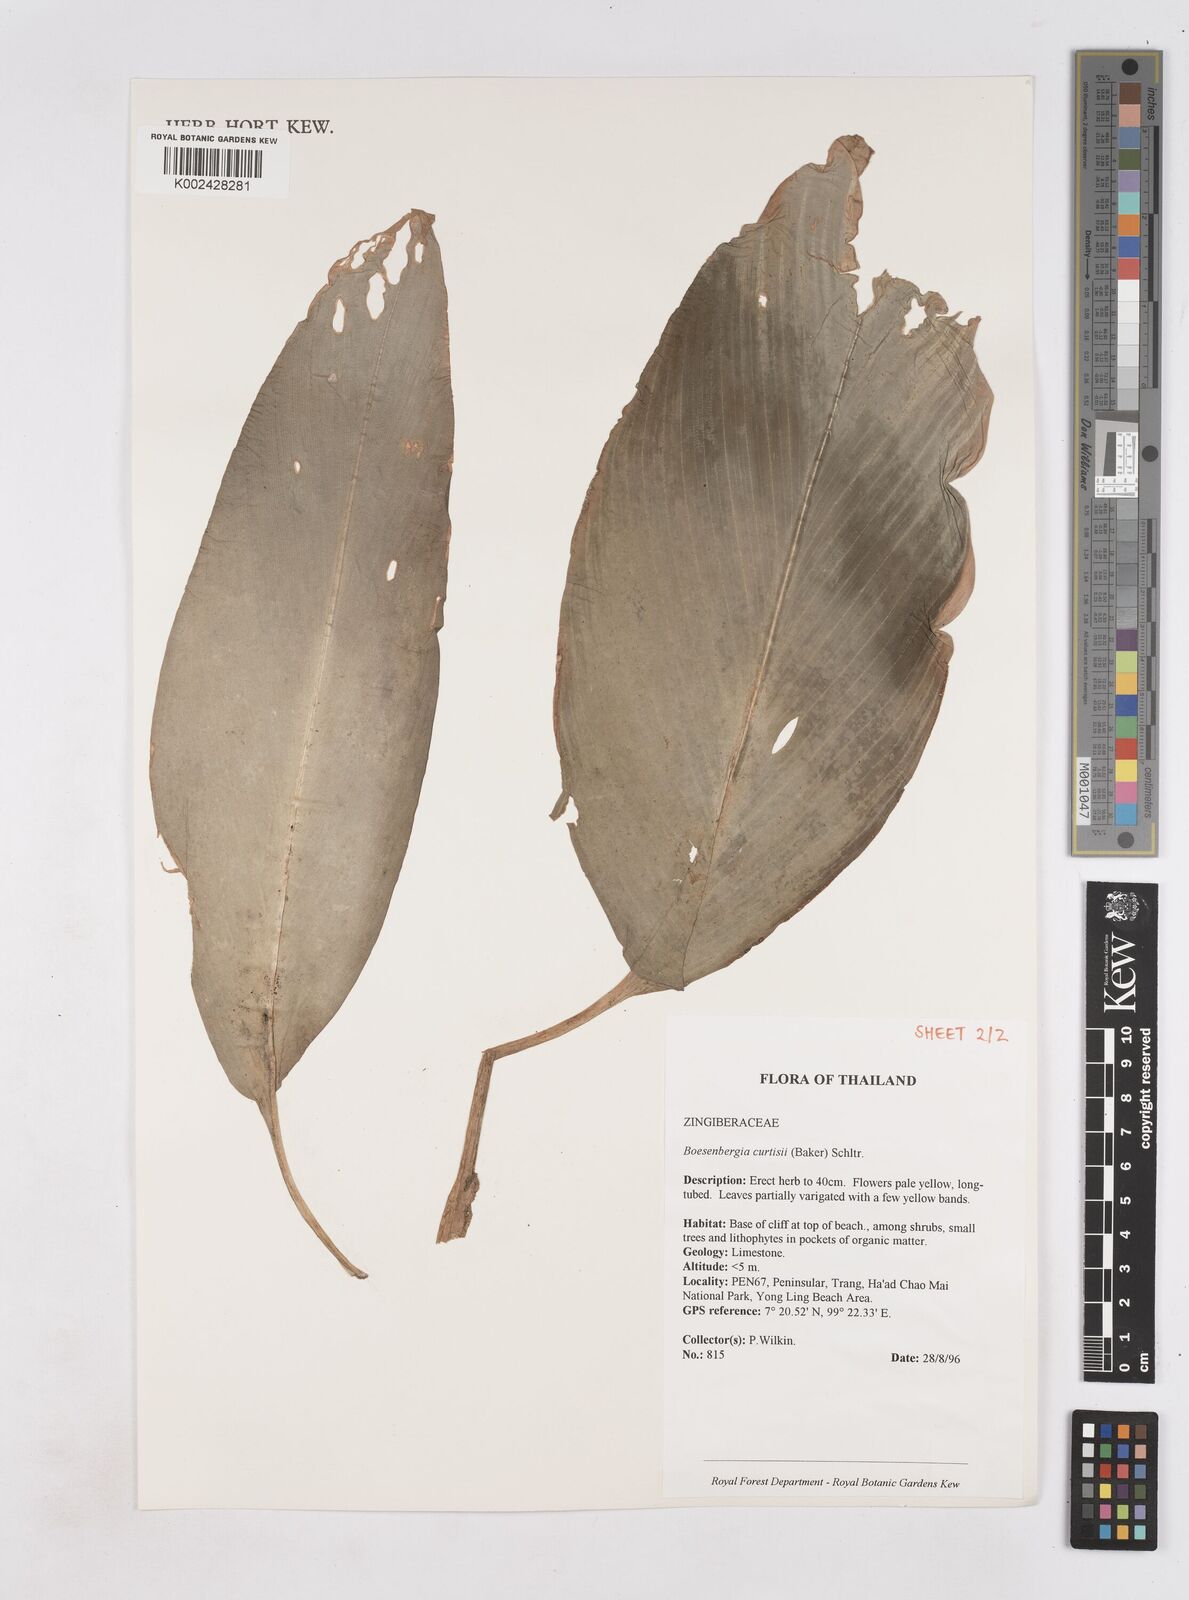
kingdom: Plantae
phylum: Tracheophyta
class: Liliopsida
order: Zingiberales
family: Zingiberaceae
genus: Boesenbergia
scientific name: Boesenbergia curtisii
